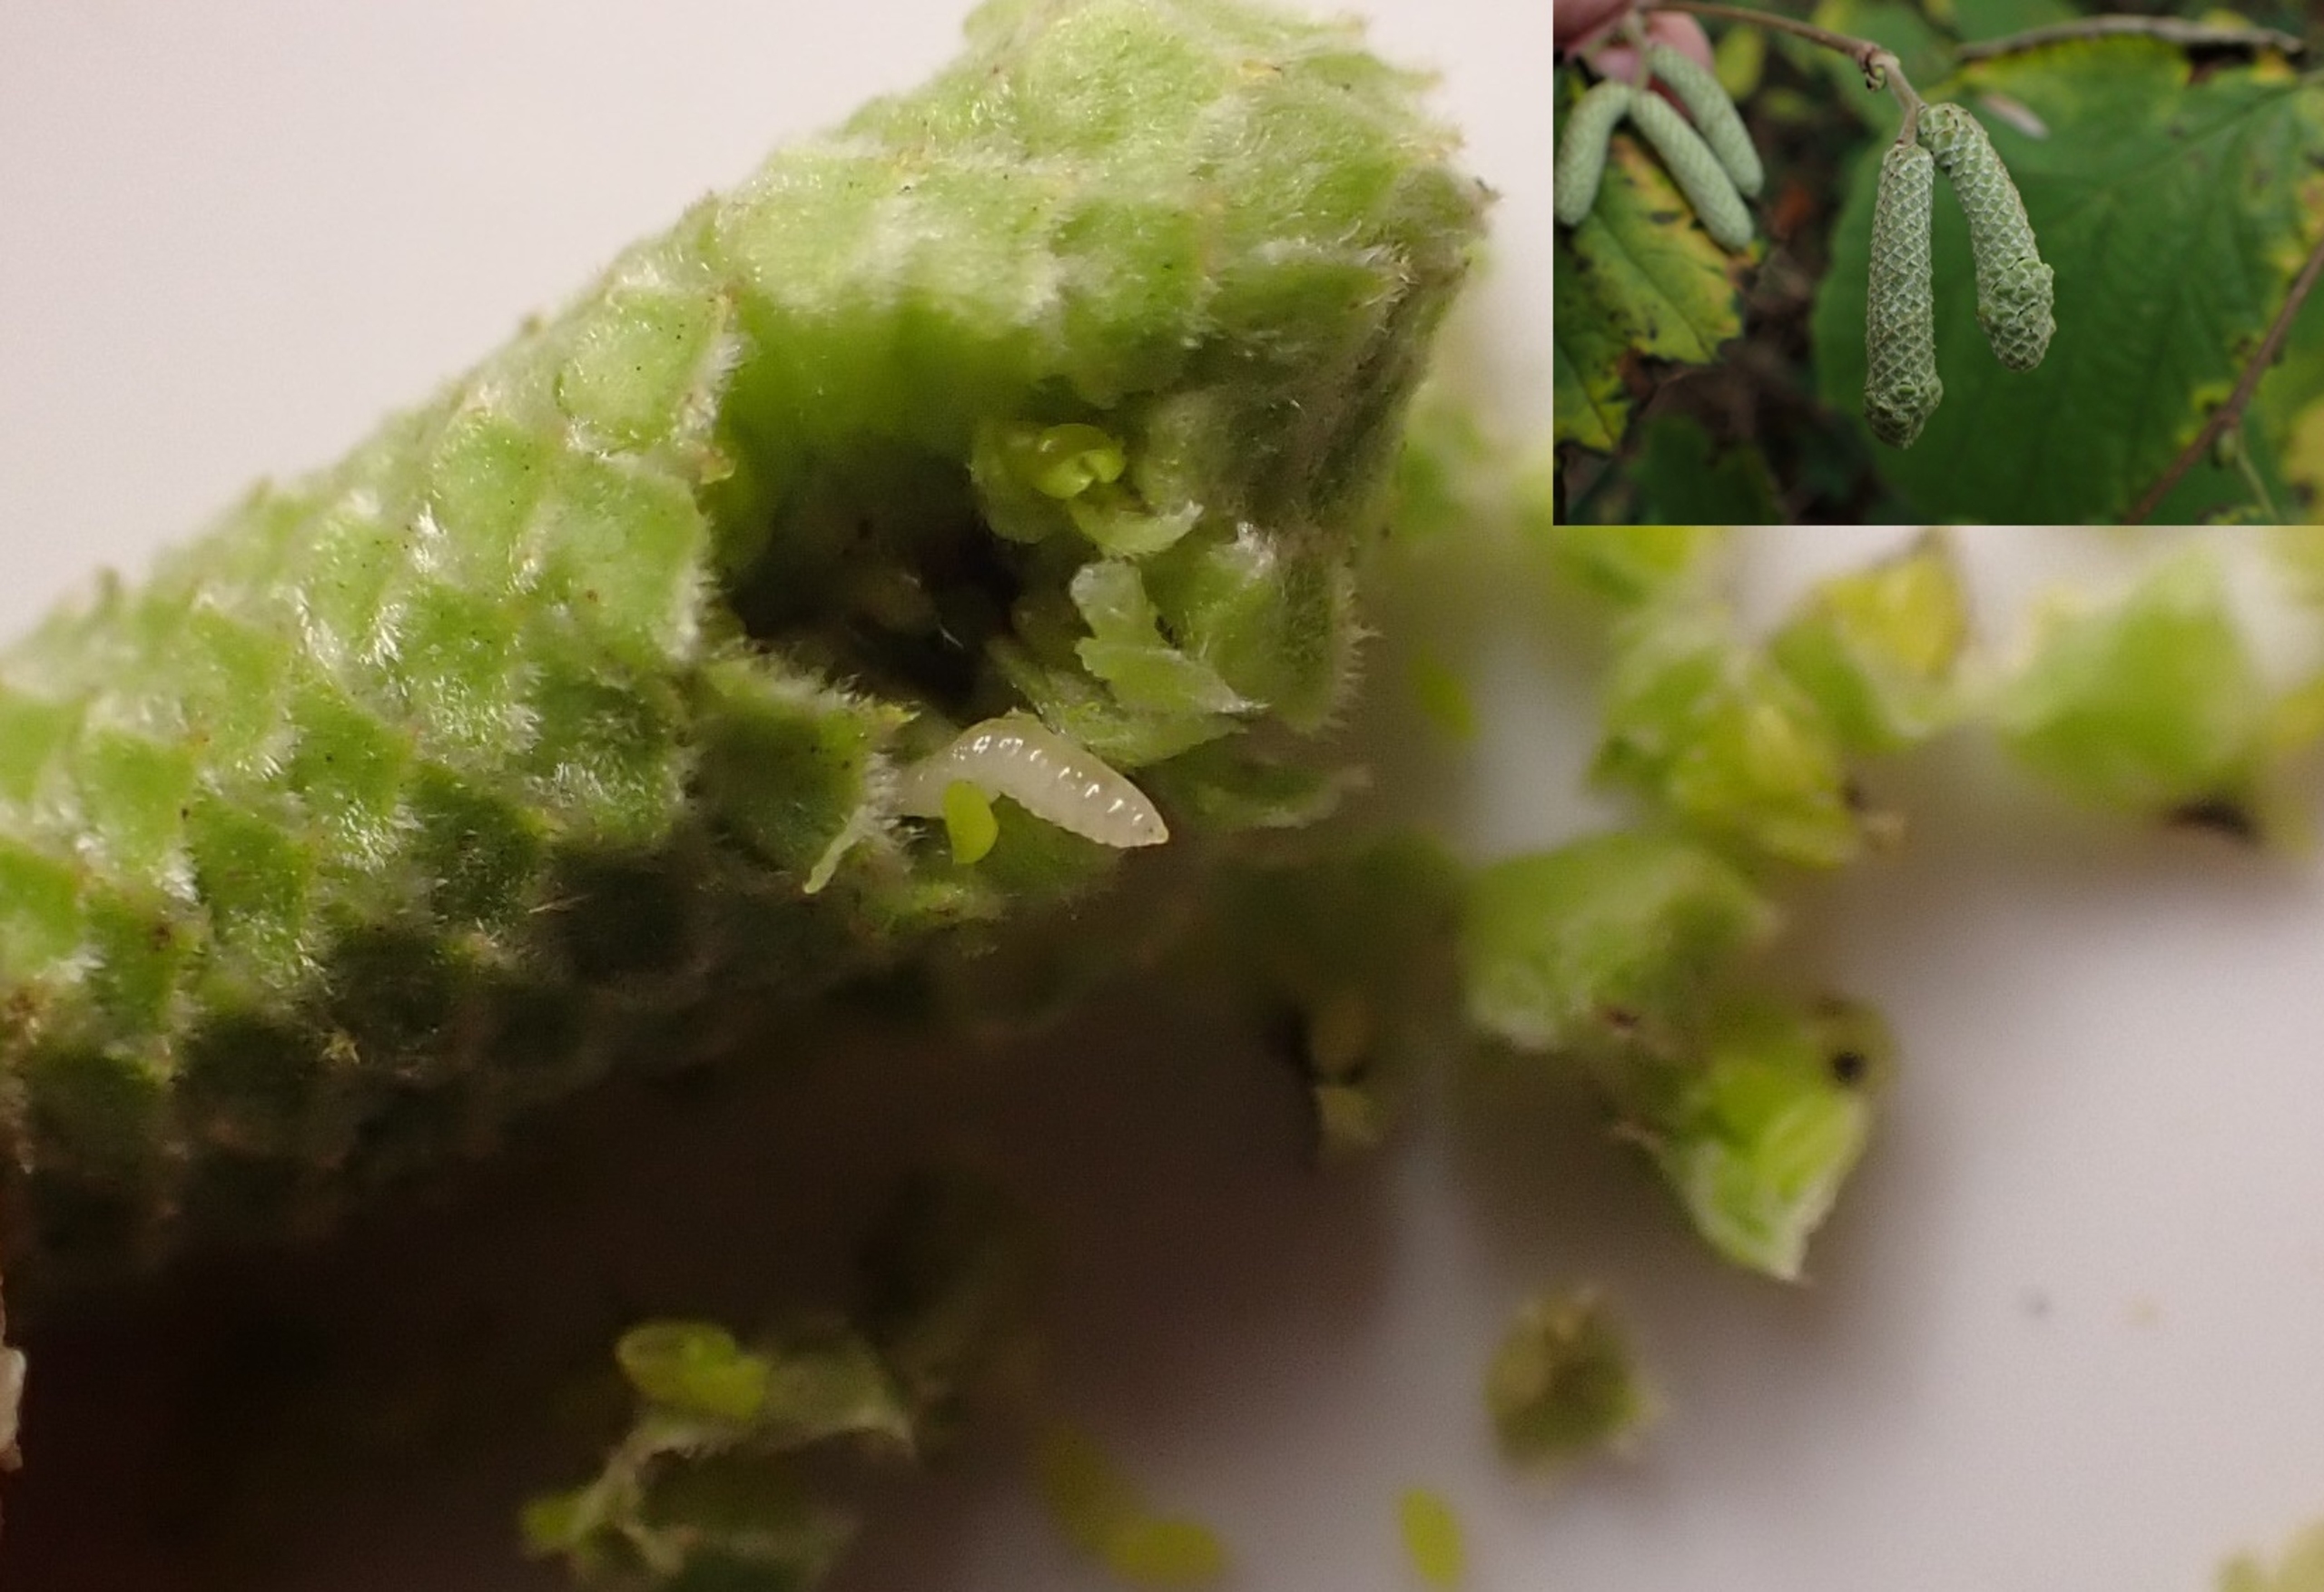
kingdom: Animalia
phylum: Arthropoda
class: Insecta
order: Diptera
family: Cecidomyiidae
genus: Contarinia
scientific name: Contarinia coryli
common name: Hasselraklegalmyg
